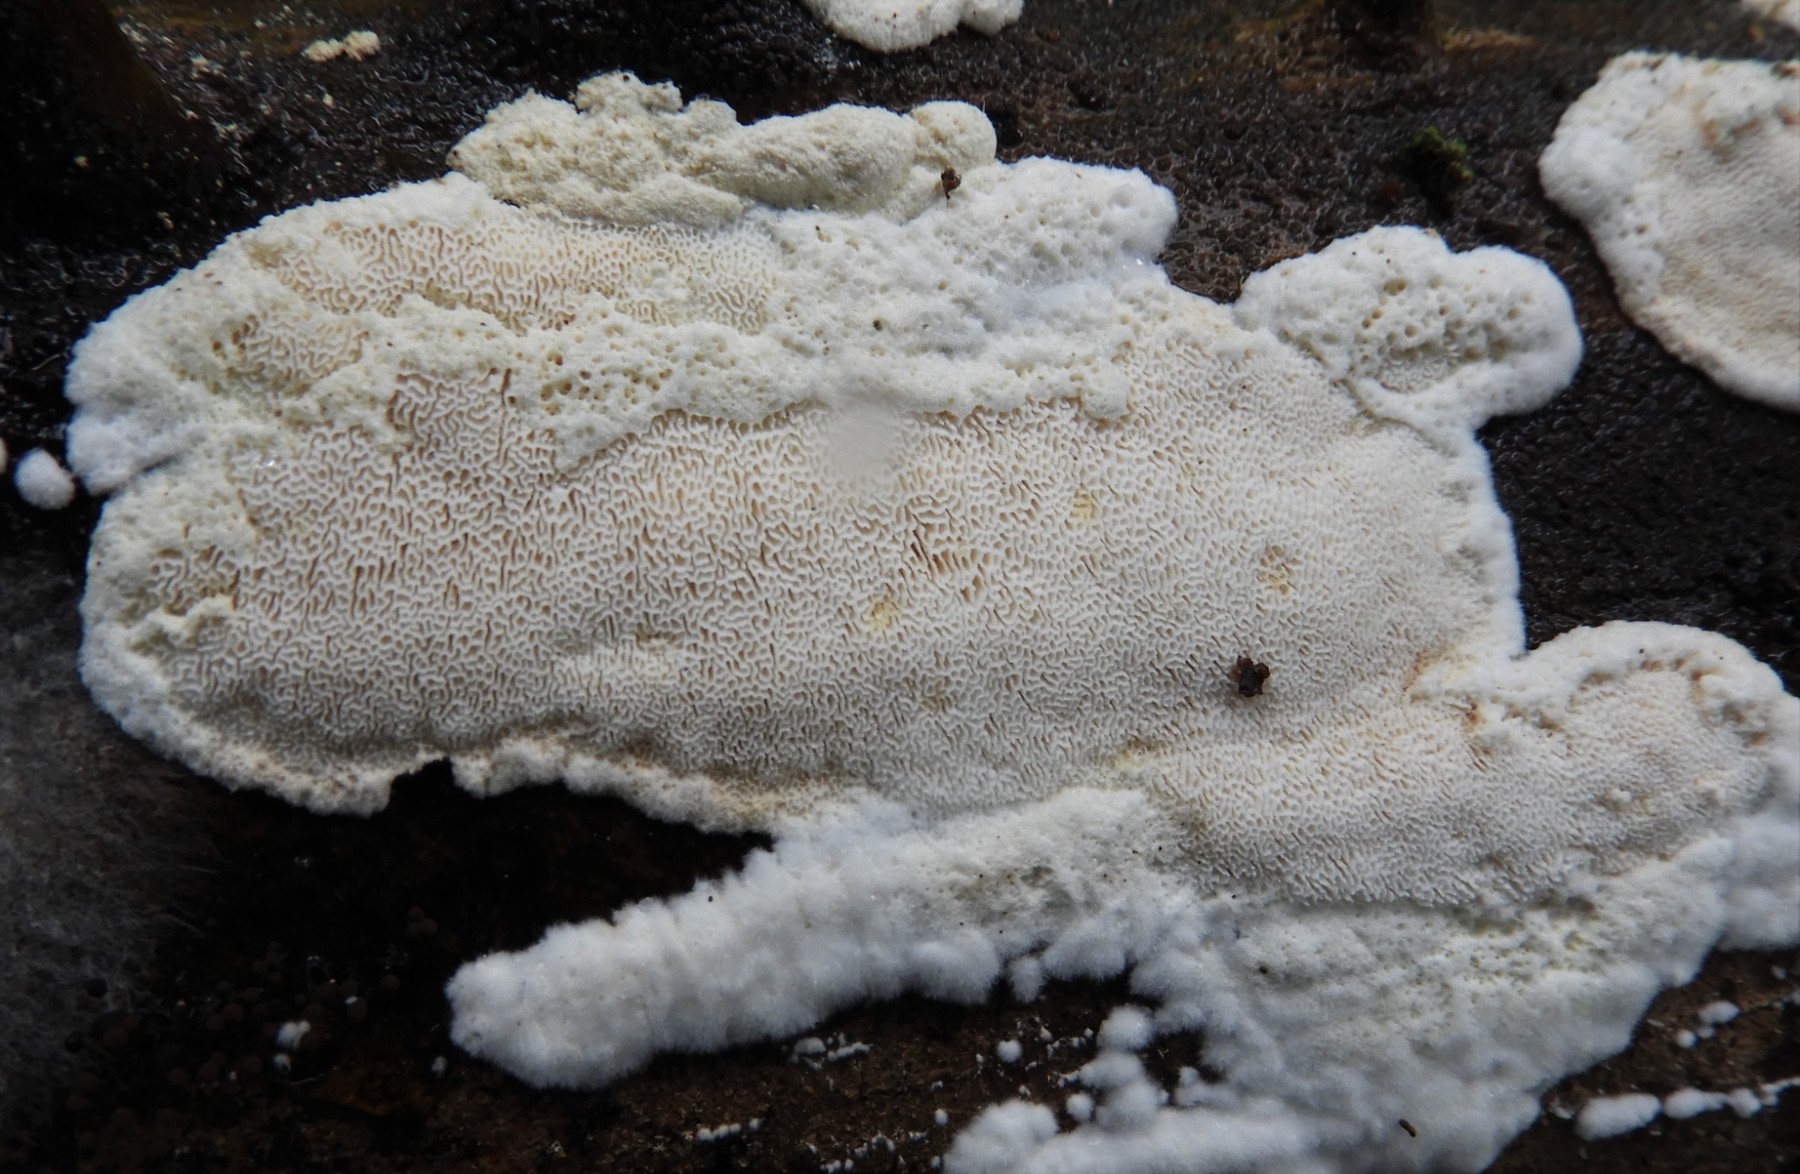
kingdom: Fungi
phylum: Basidiomycota
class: Agaricomycetes
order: Polyporales
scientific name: Polyporales
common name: poresvampordenen
